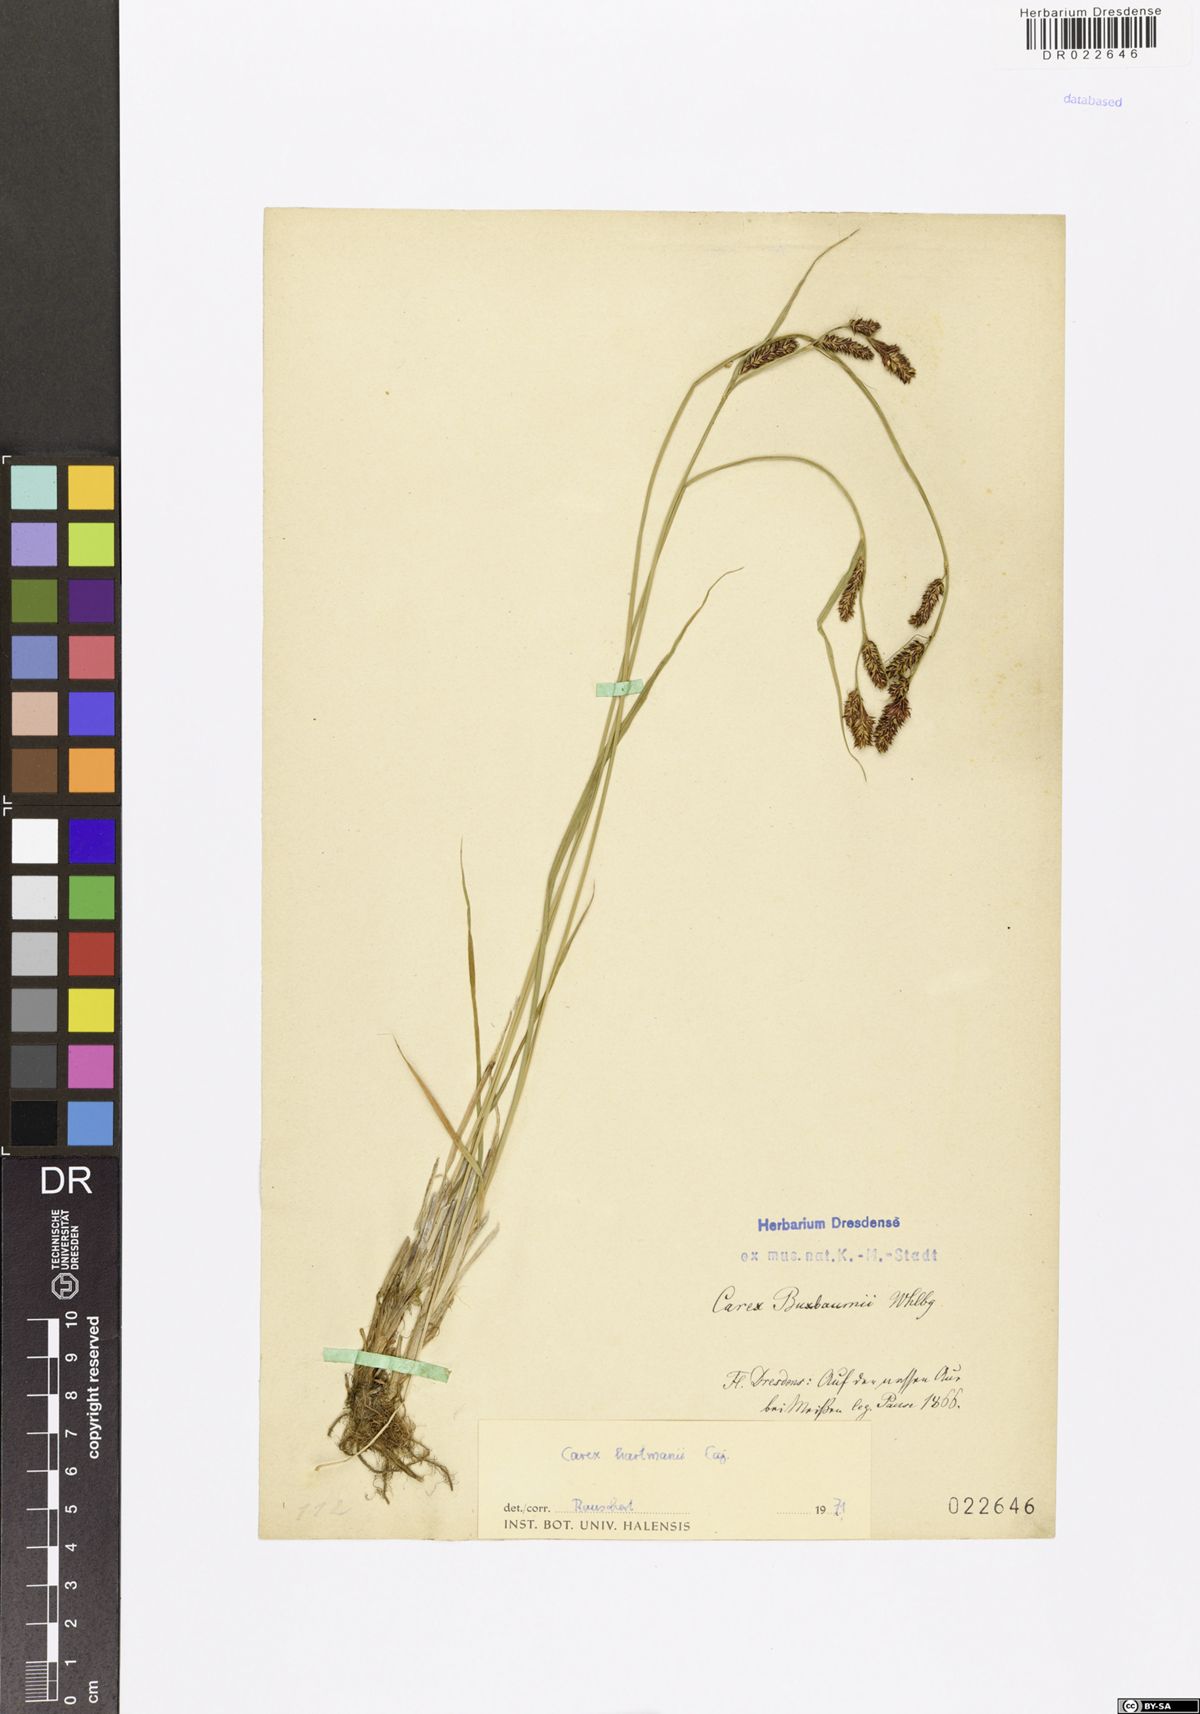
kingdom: Plantae
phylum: Tracheophyta
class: Liliopsida
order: Poales
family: Cyperaceae
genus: Carex
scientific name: Carex hartmaniorum
